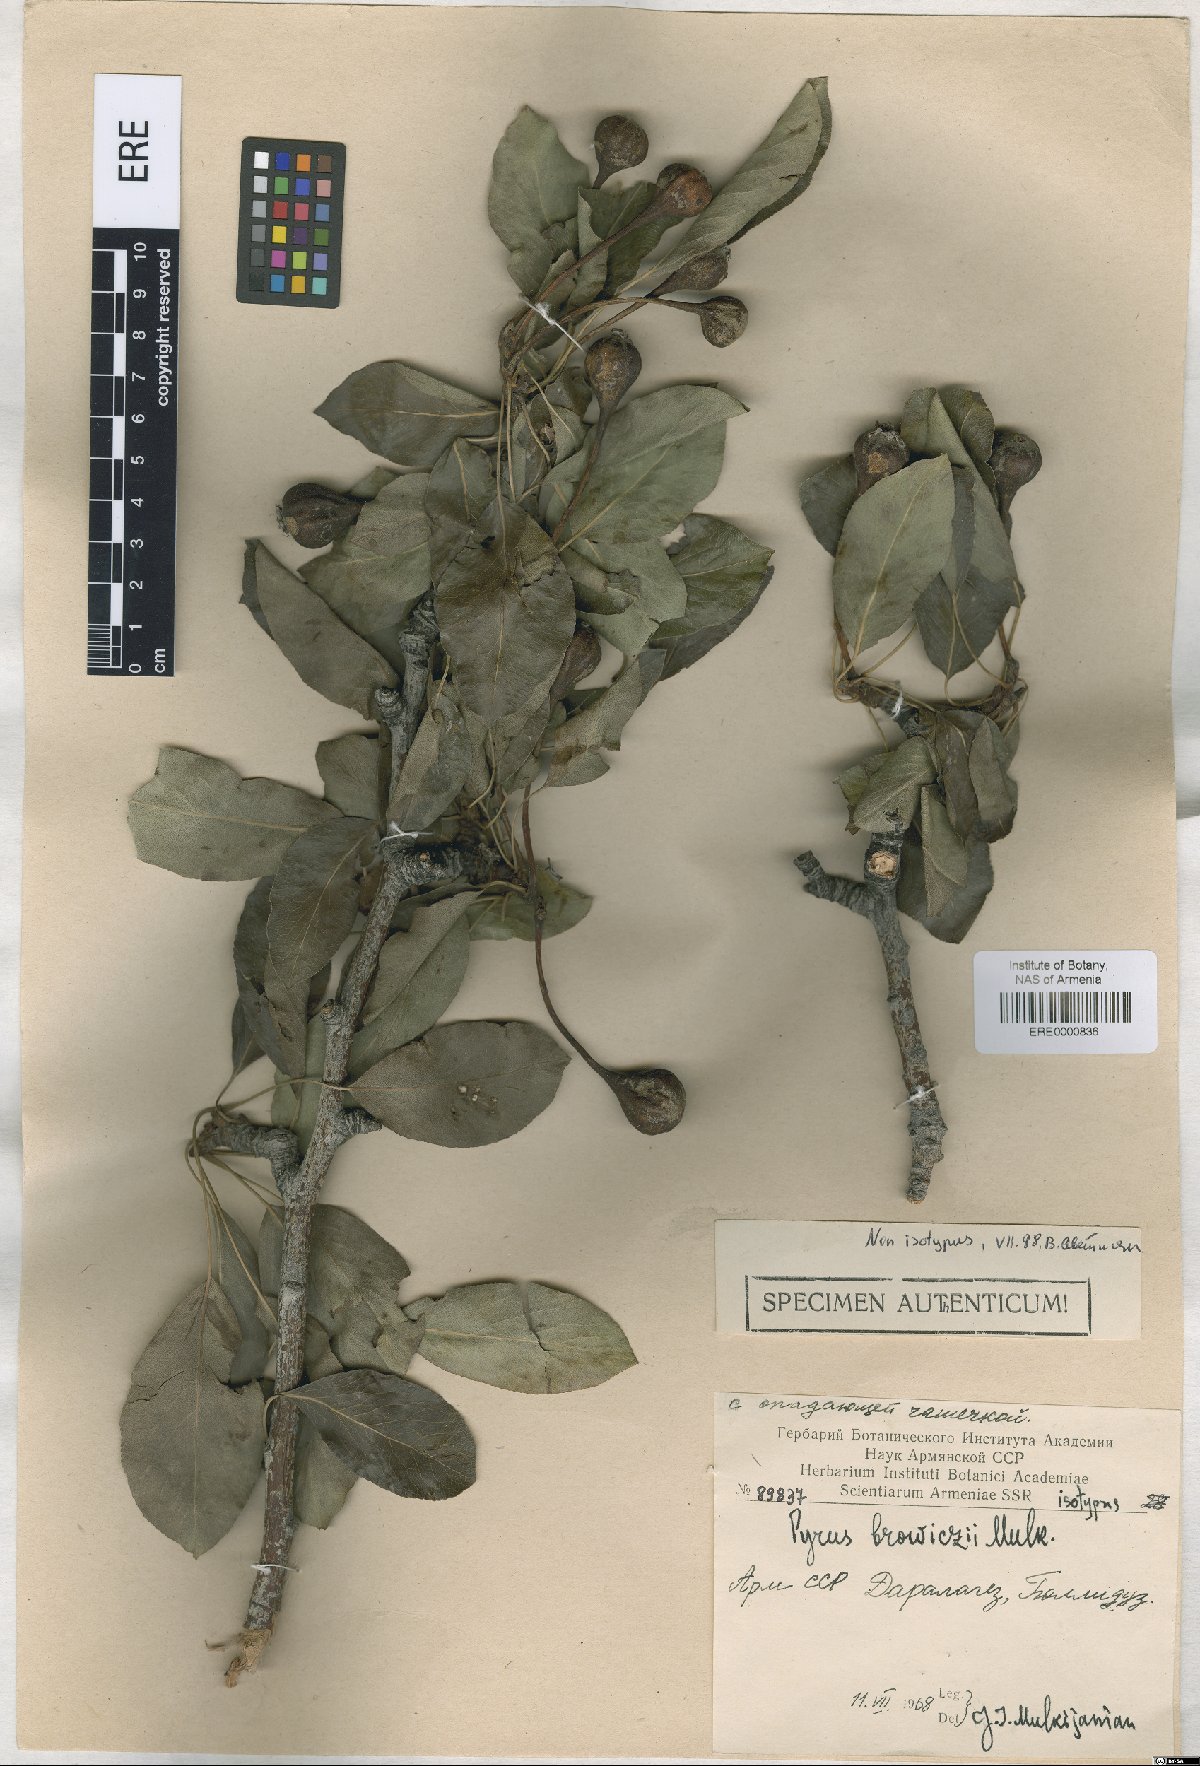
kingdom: Plantae
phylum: Tracheophyta
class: Magnoliopsida
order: Rosales
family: Rosaceae
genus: Pyrus
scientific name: Pyrus browiczii
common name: Brovich's pear
